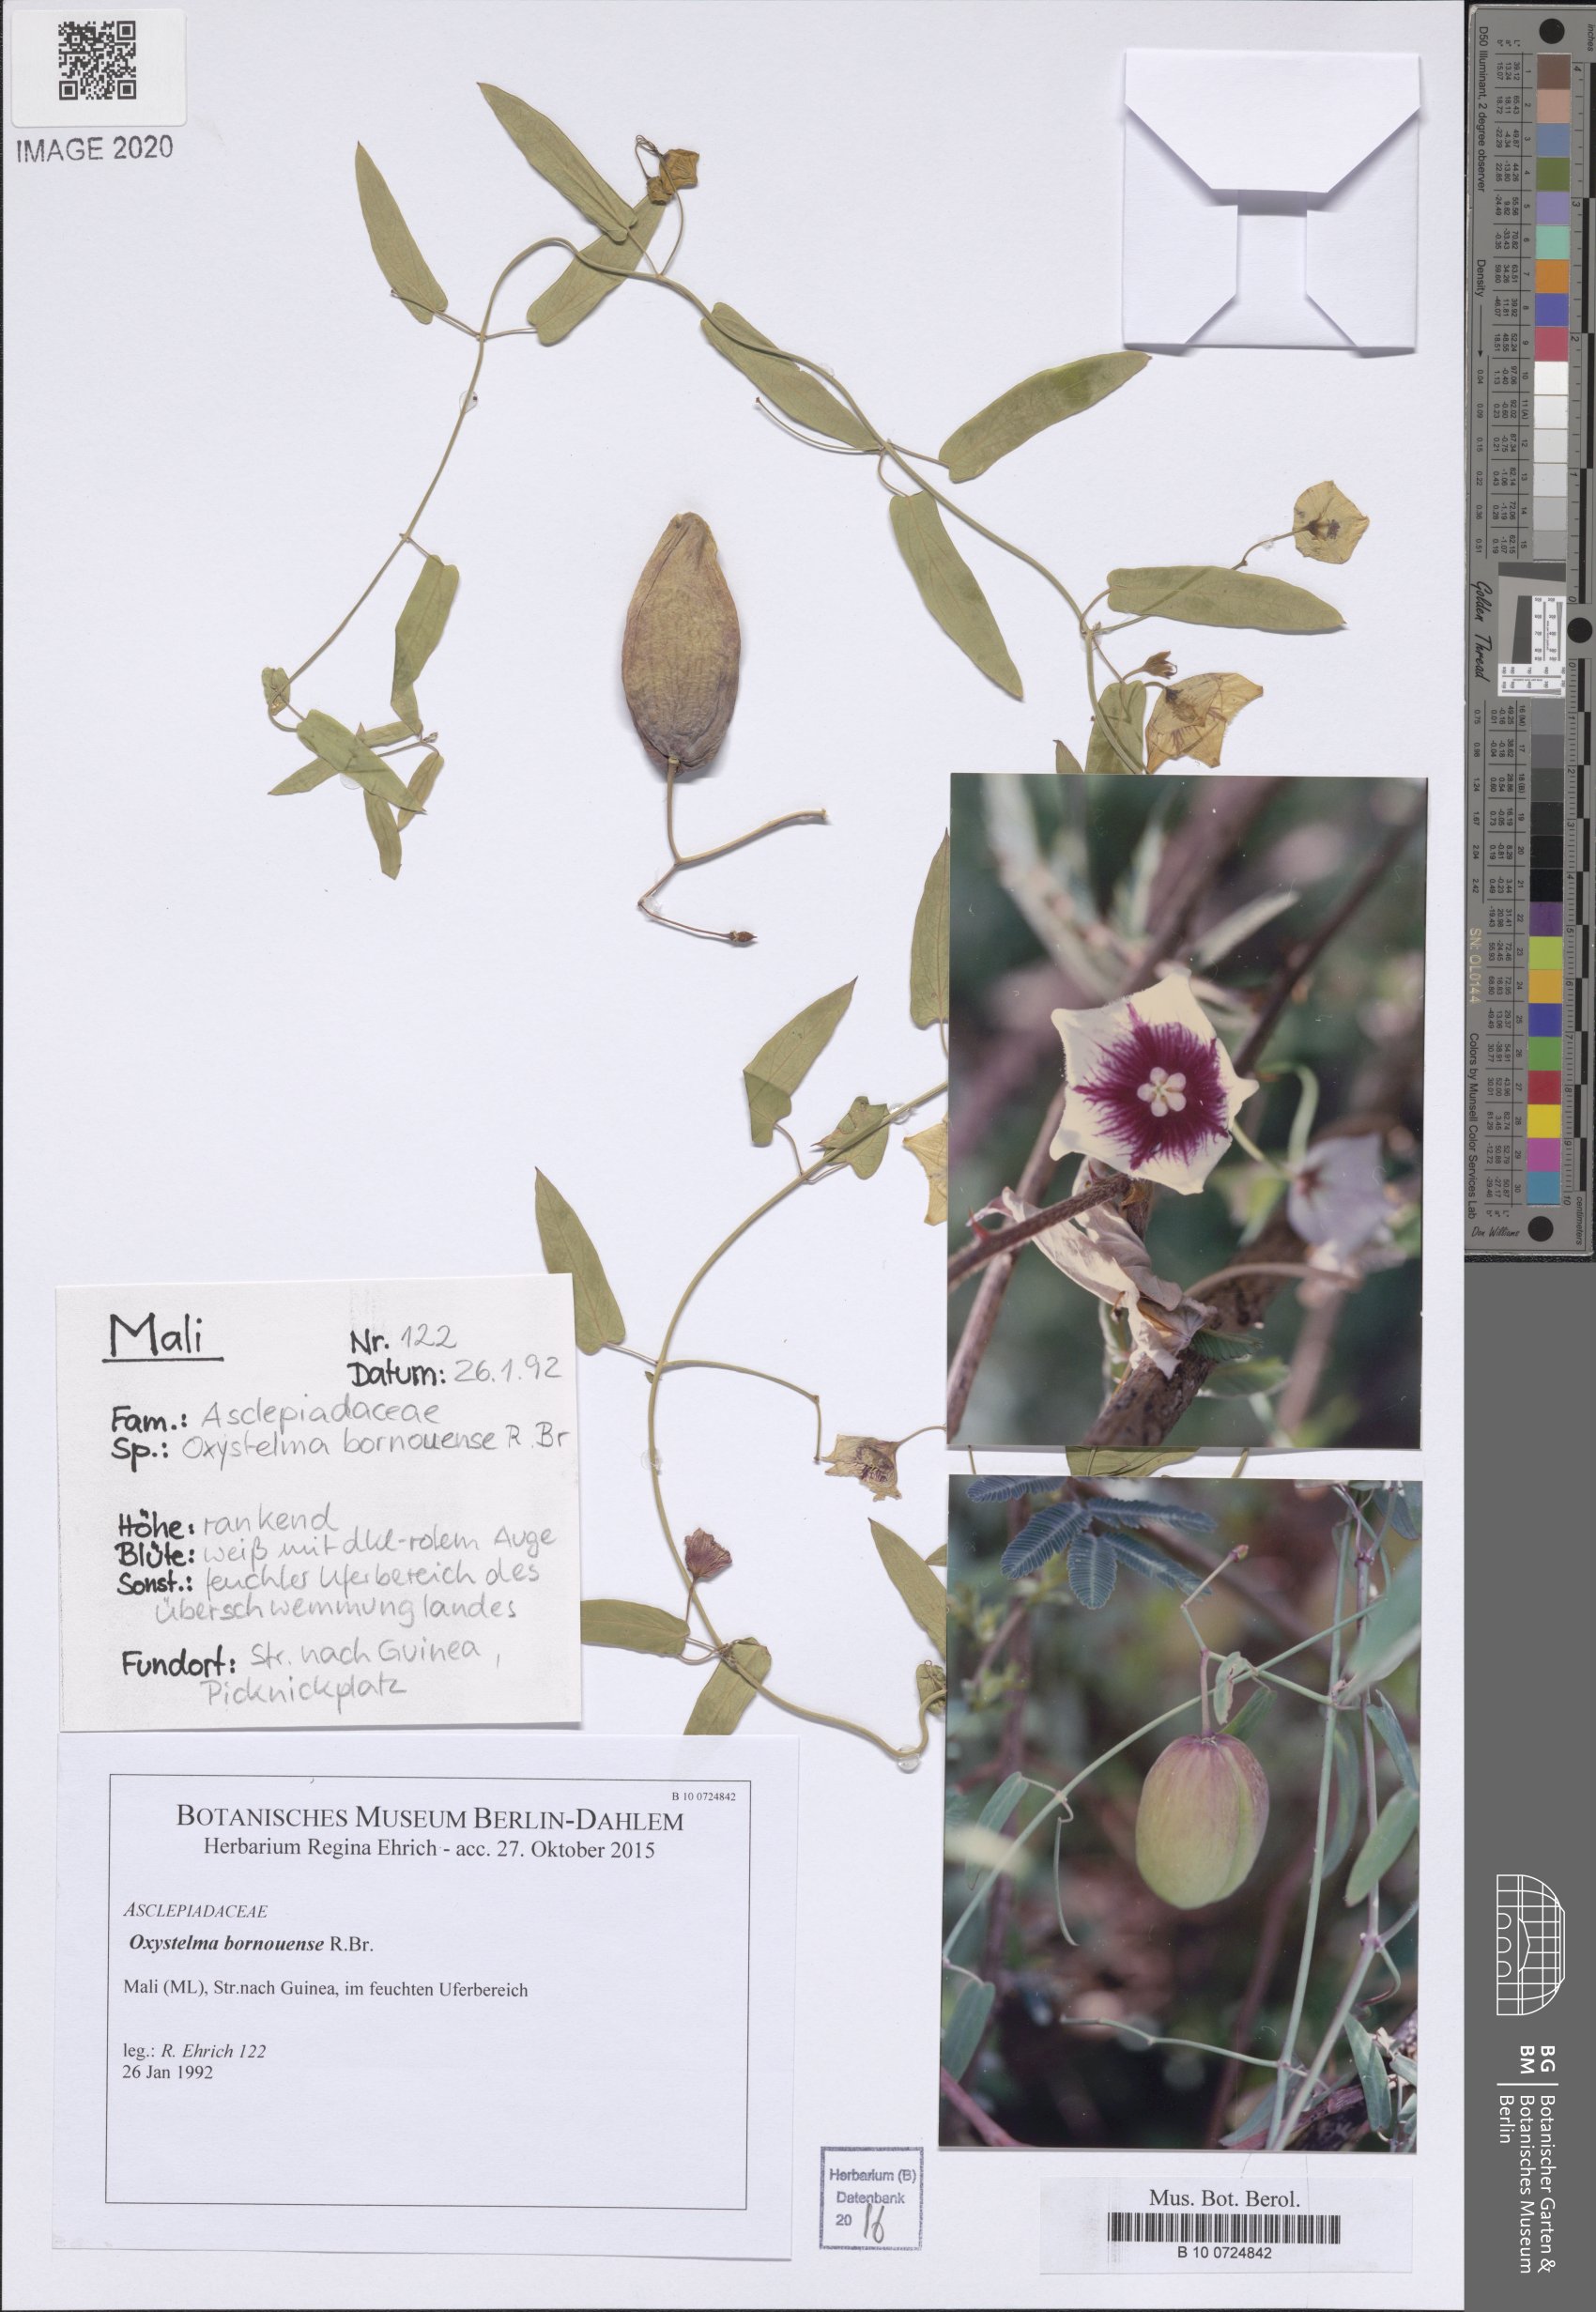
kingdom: Plantae
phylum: Tracheophyta
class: Magnoliopsida
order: Gentianales
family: Apocynaceae
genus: Oxystelma
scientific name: Oxystelma bornouense
